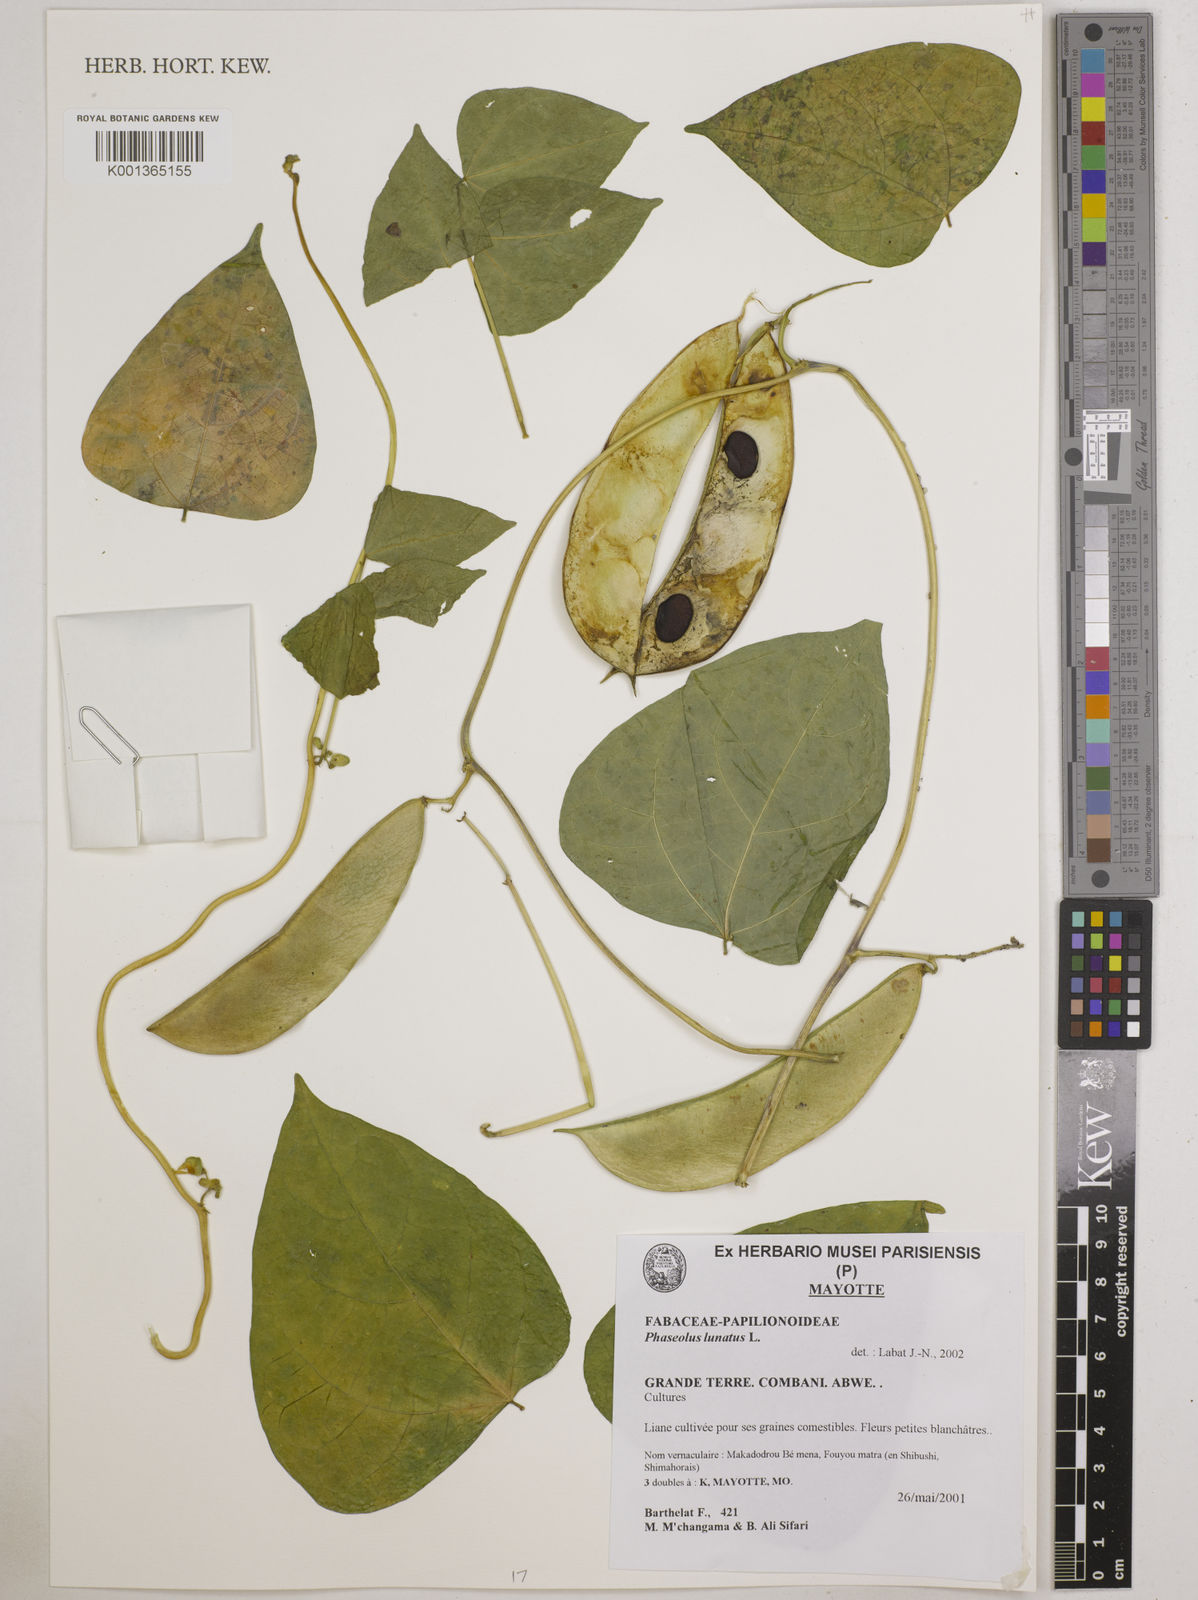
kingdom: Plantae
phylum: Tracheophyta
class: Magnoliopsida
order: Fabales
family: Fabaceae
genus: Phaseolus
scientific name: Phaseolus vulgaris
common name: Bean
